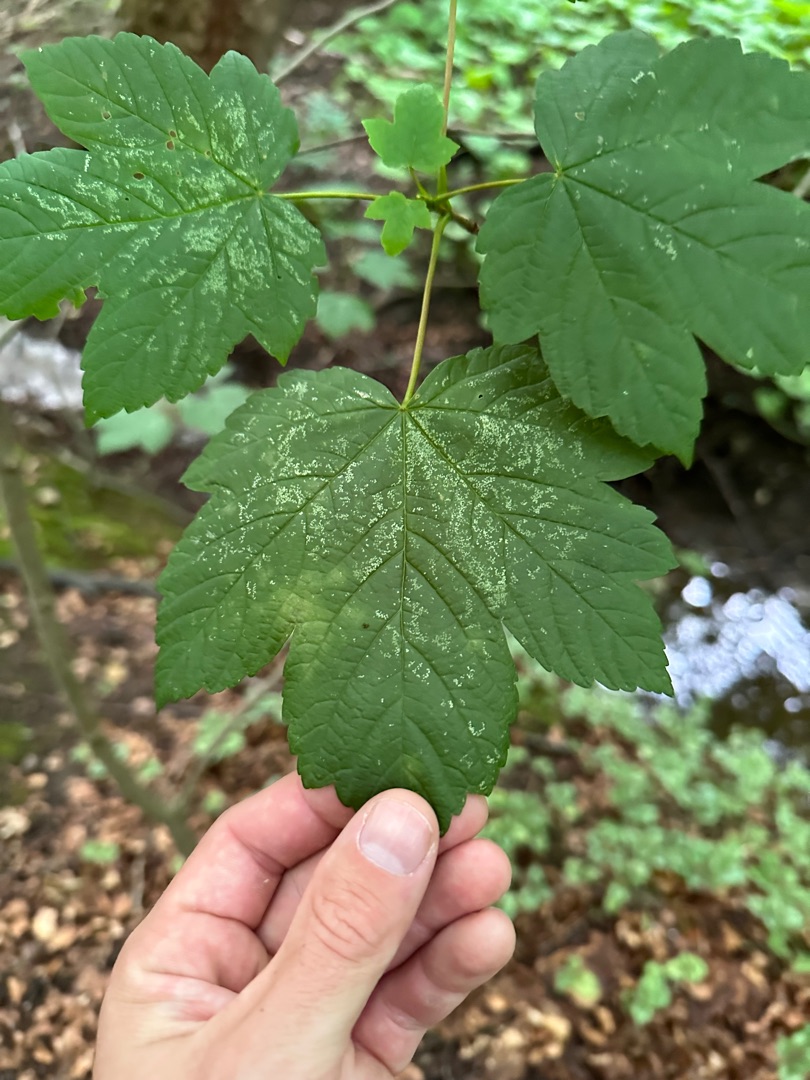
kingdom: Plantae
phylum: Tracheophyta
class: Magnoliopsida
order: Sapindales
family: Sapindaceae
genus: Acer
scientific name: Acer pseudoplatanus
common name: Ahorn
